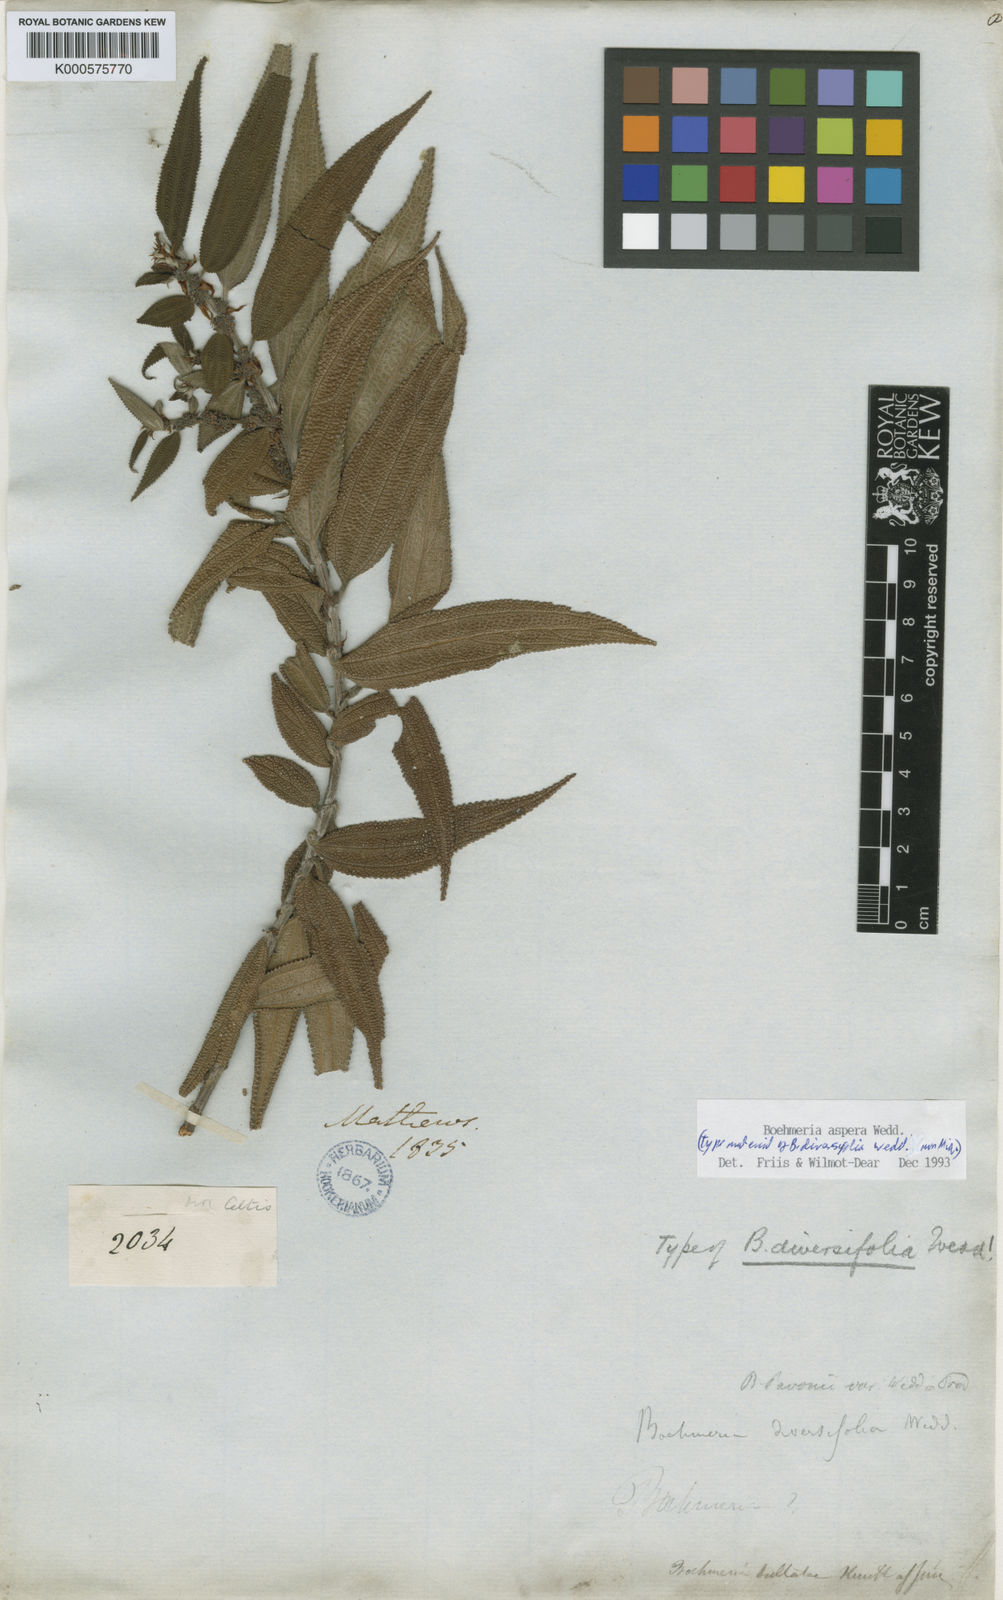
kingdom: Plantae
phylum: Tracheophyta
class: Magnoliopsida
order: Rosales
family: Urticaceae
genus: Boehmeria
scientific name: Boehmeria aspera
